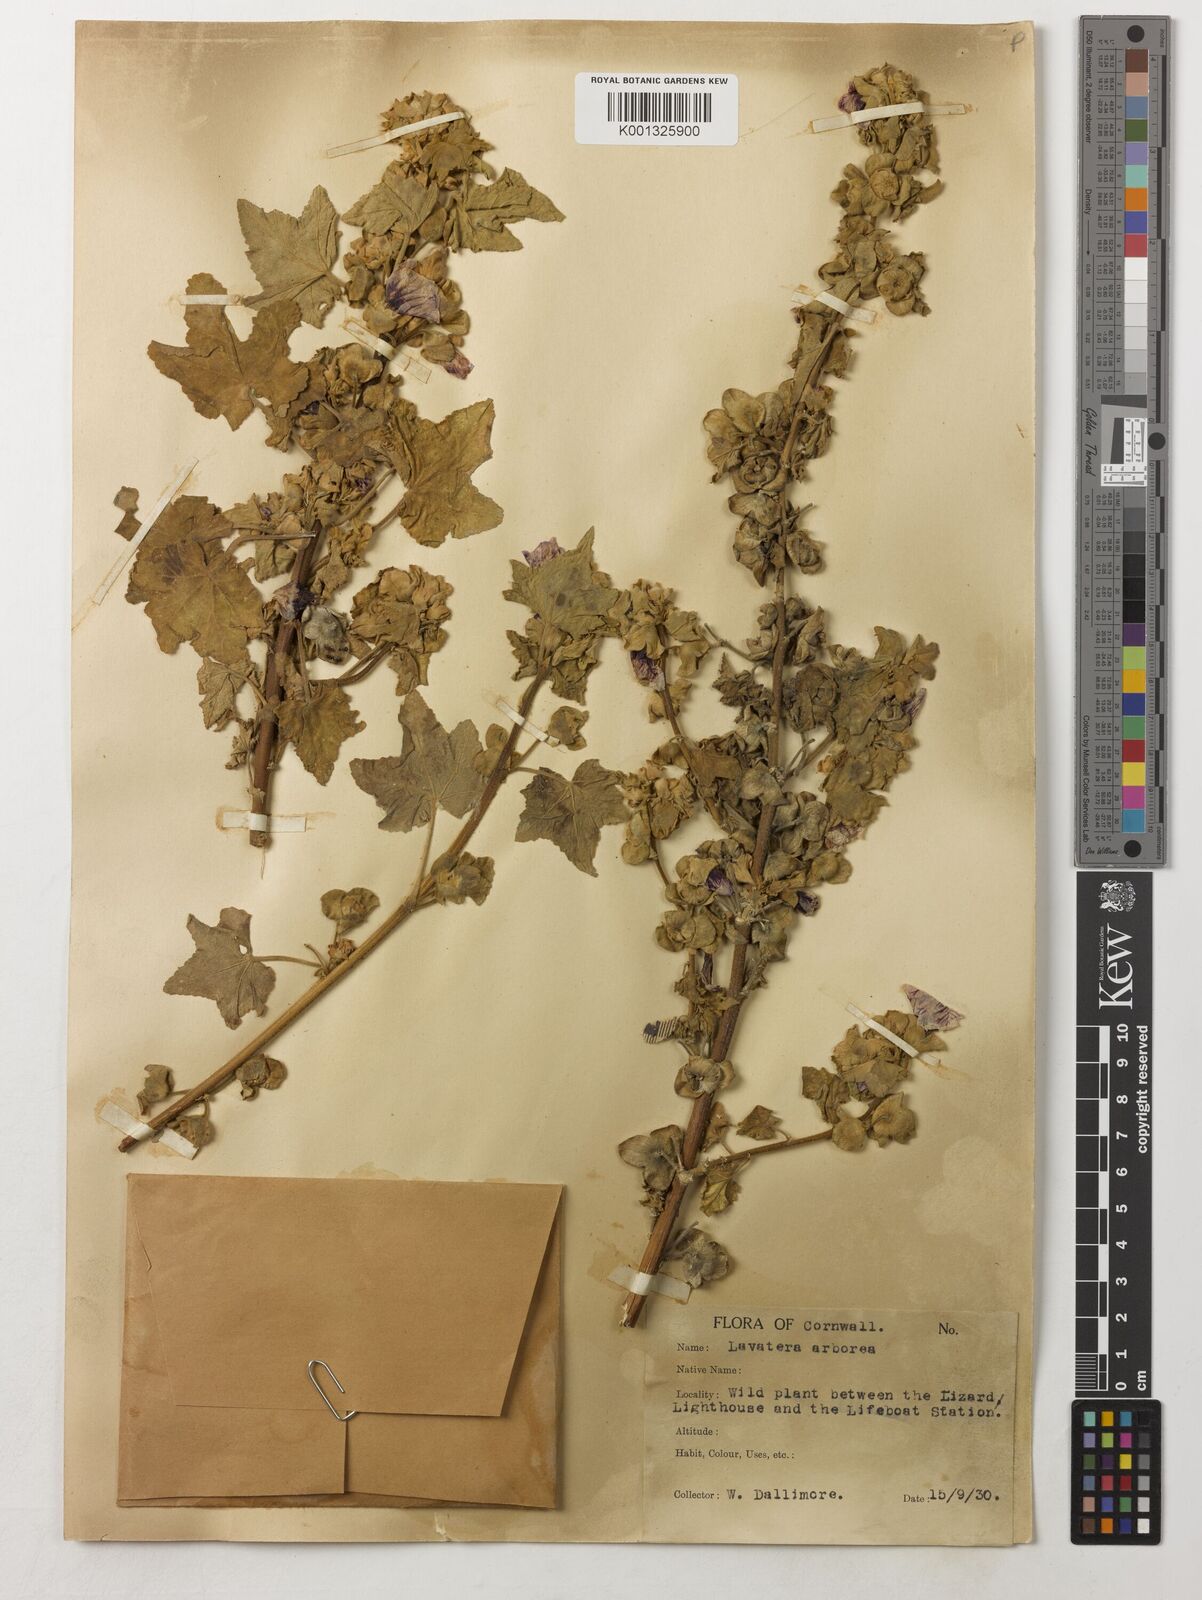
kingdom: Plantae
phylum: Tracheophyta
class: Magnoliopsida
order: Malvales
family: Malvaceae
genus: Malva
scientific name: Malva arborea
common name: Tree mallow
